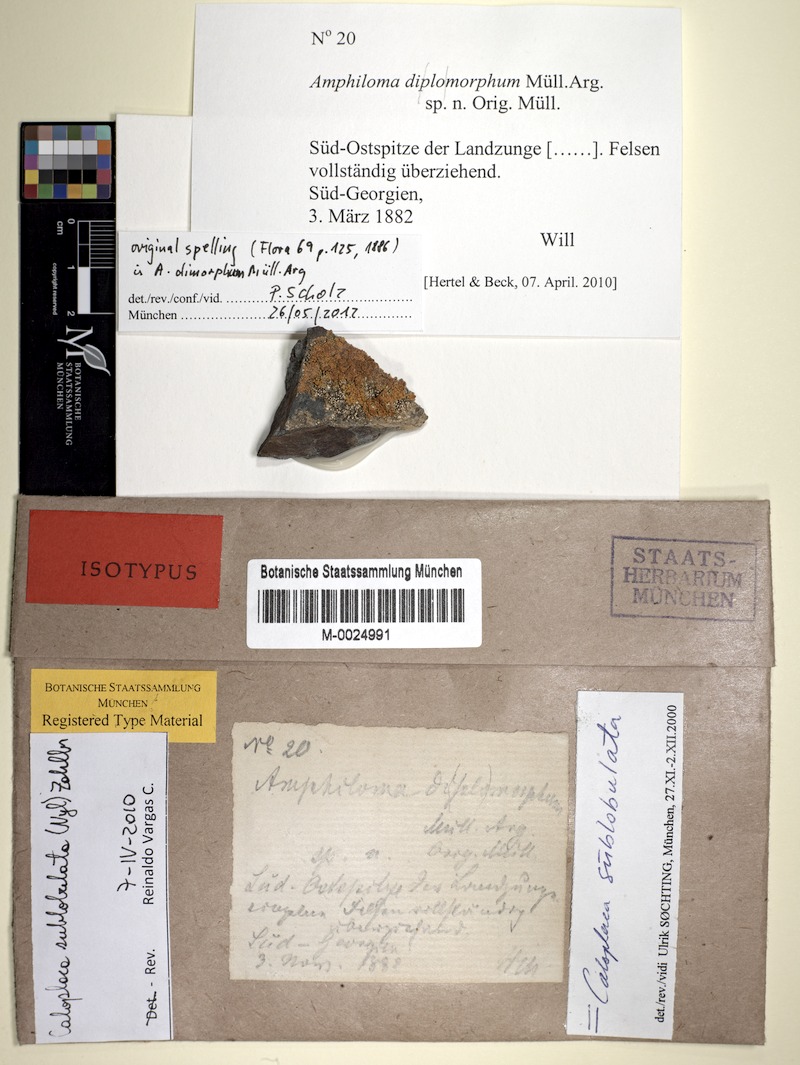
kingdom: Fungi
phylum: Ascomycota
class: Lecanoromycetes
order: Teloschistales
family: Teloschistaceae
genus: Gondwania
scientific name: Gondwania sublobulata
